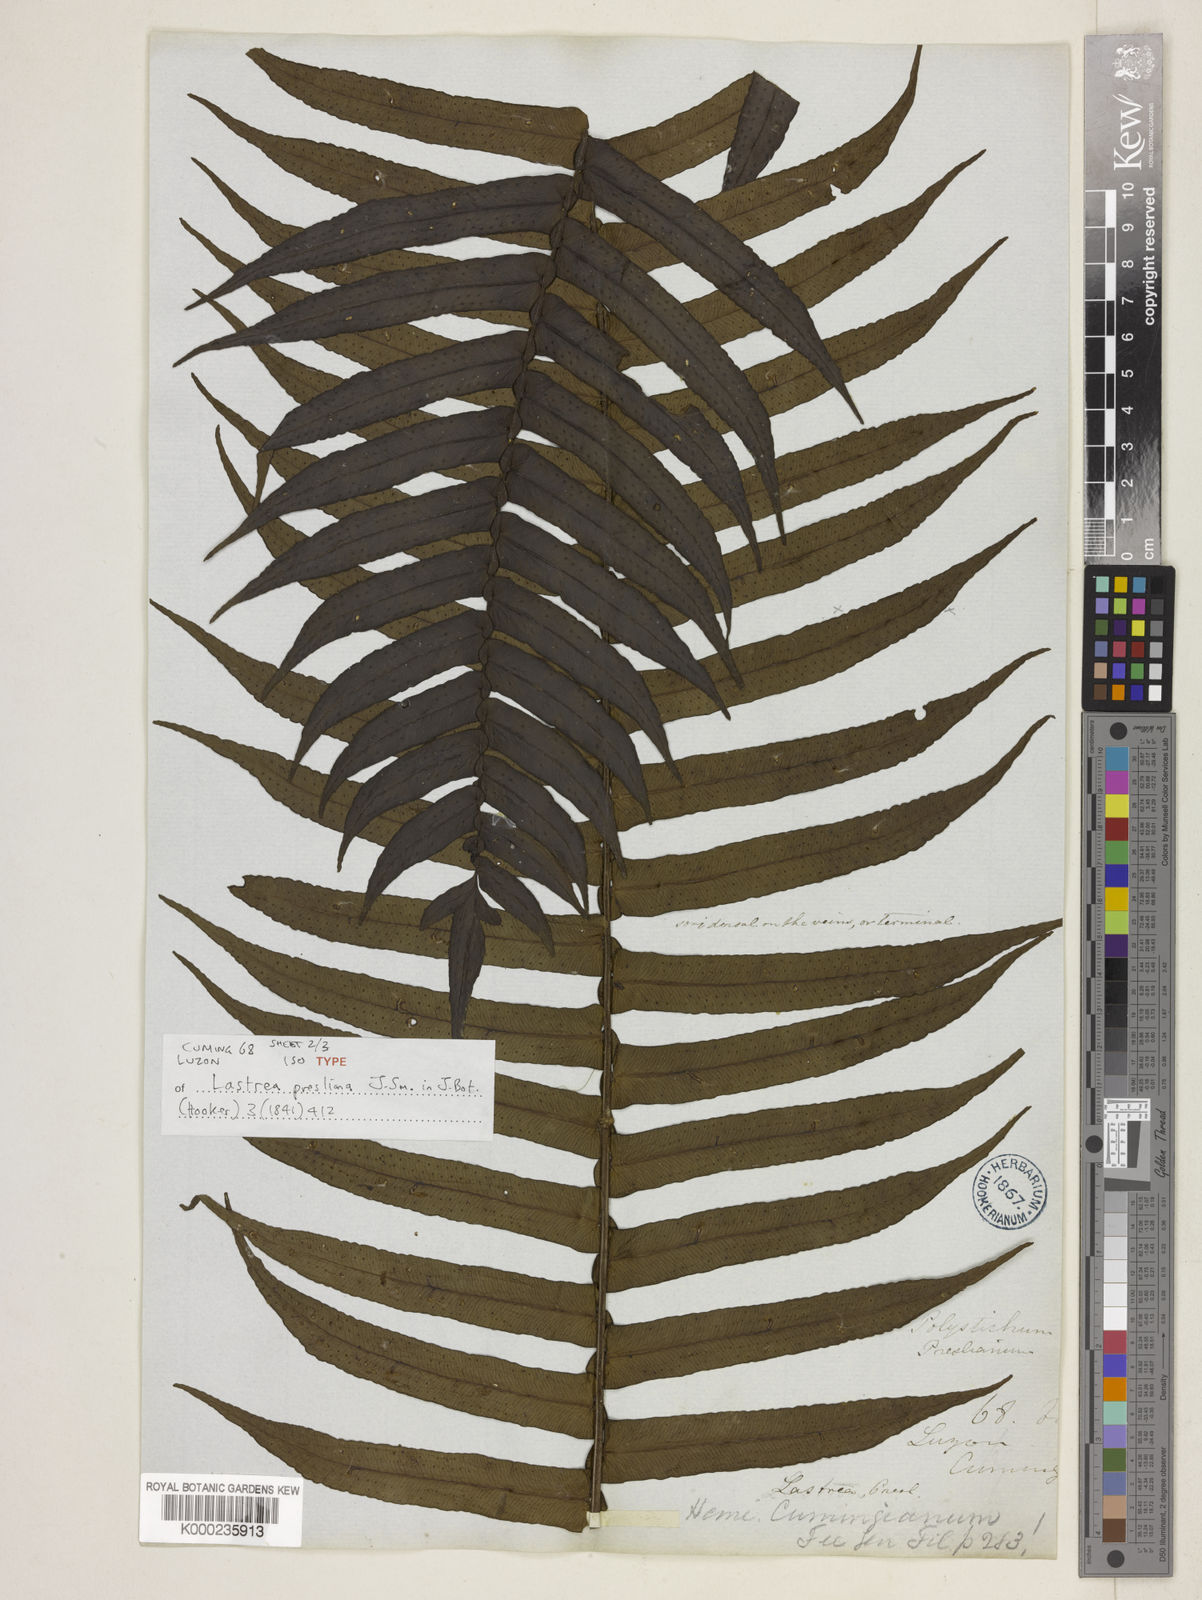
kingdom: Plantae
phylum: Tracheophyta
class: Polypodiopsida
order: Polypodiales
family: Lomariopsidaceae
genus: Cyclopeltis
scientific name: Cyclopeltis presliana
